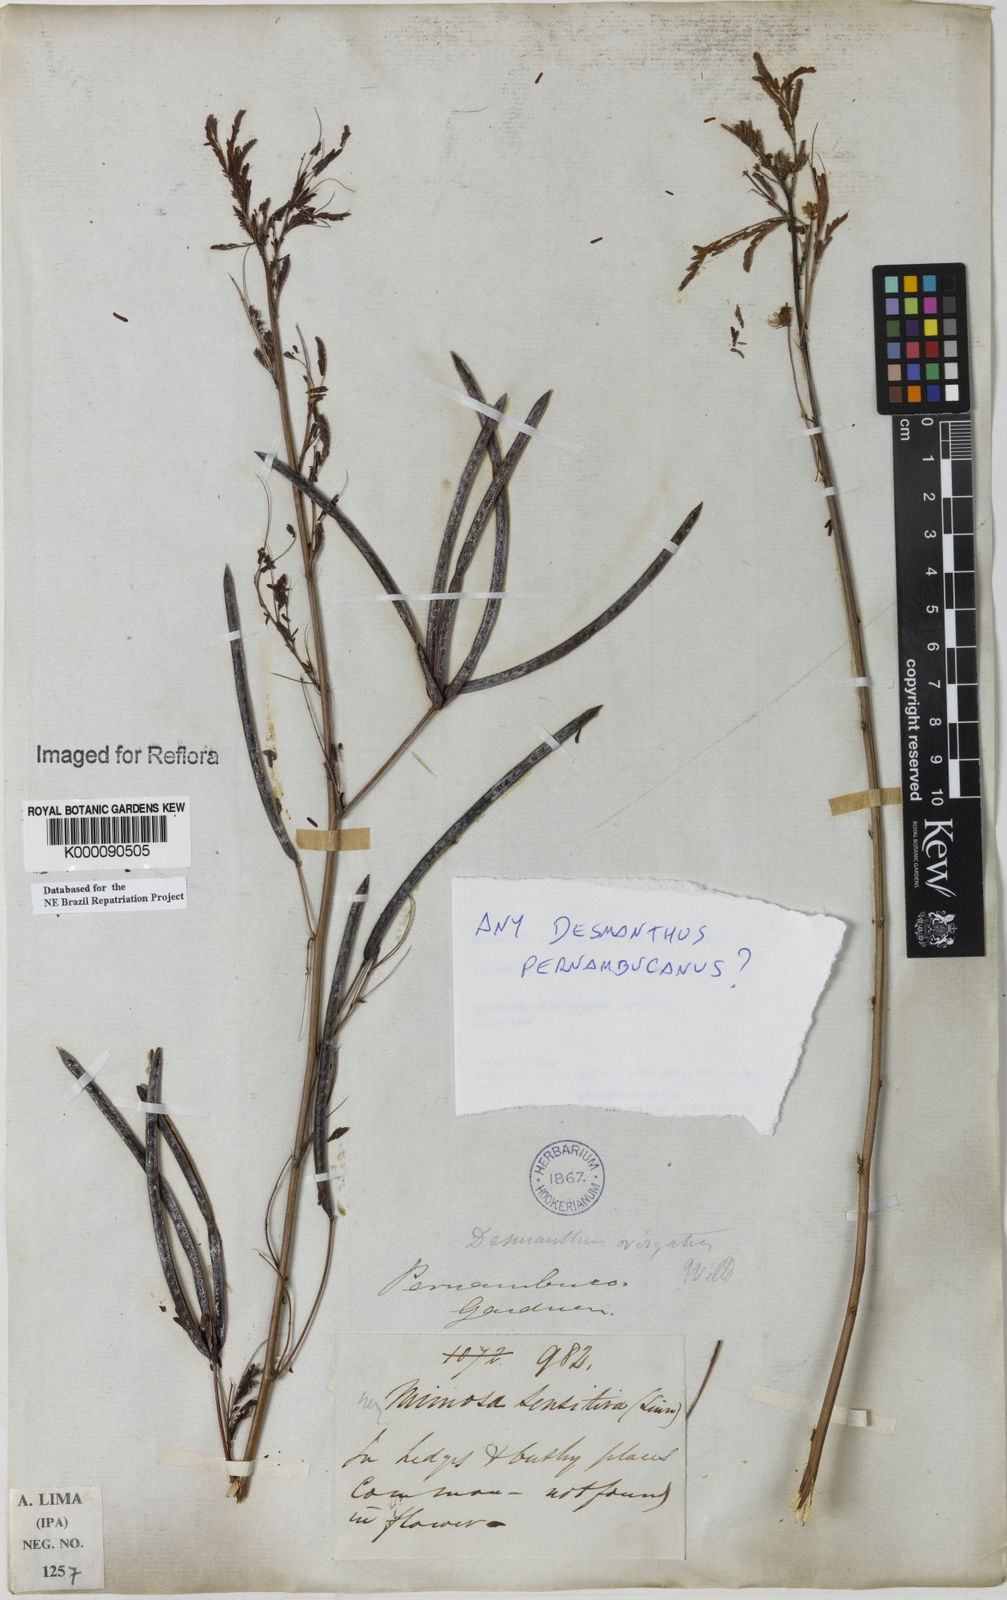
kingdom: Plantae
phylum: Tracheophyta
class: Magnoliopsida
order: Fabales
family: Fabaceae
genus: Desmanthus
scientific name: Desmanthus
